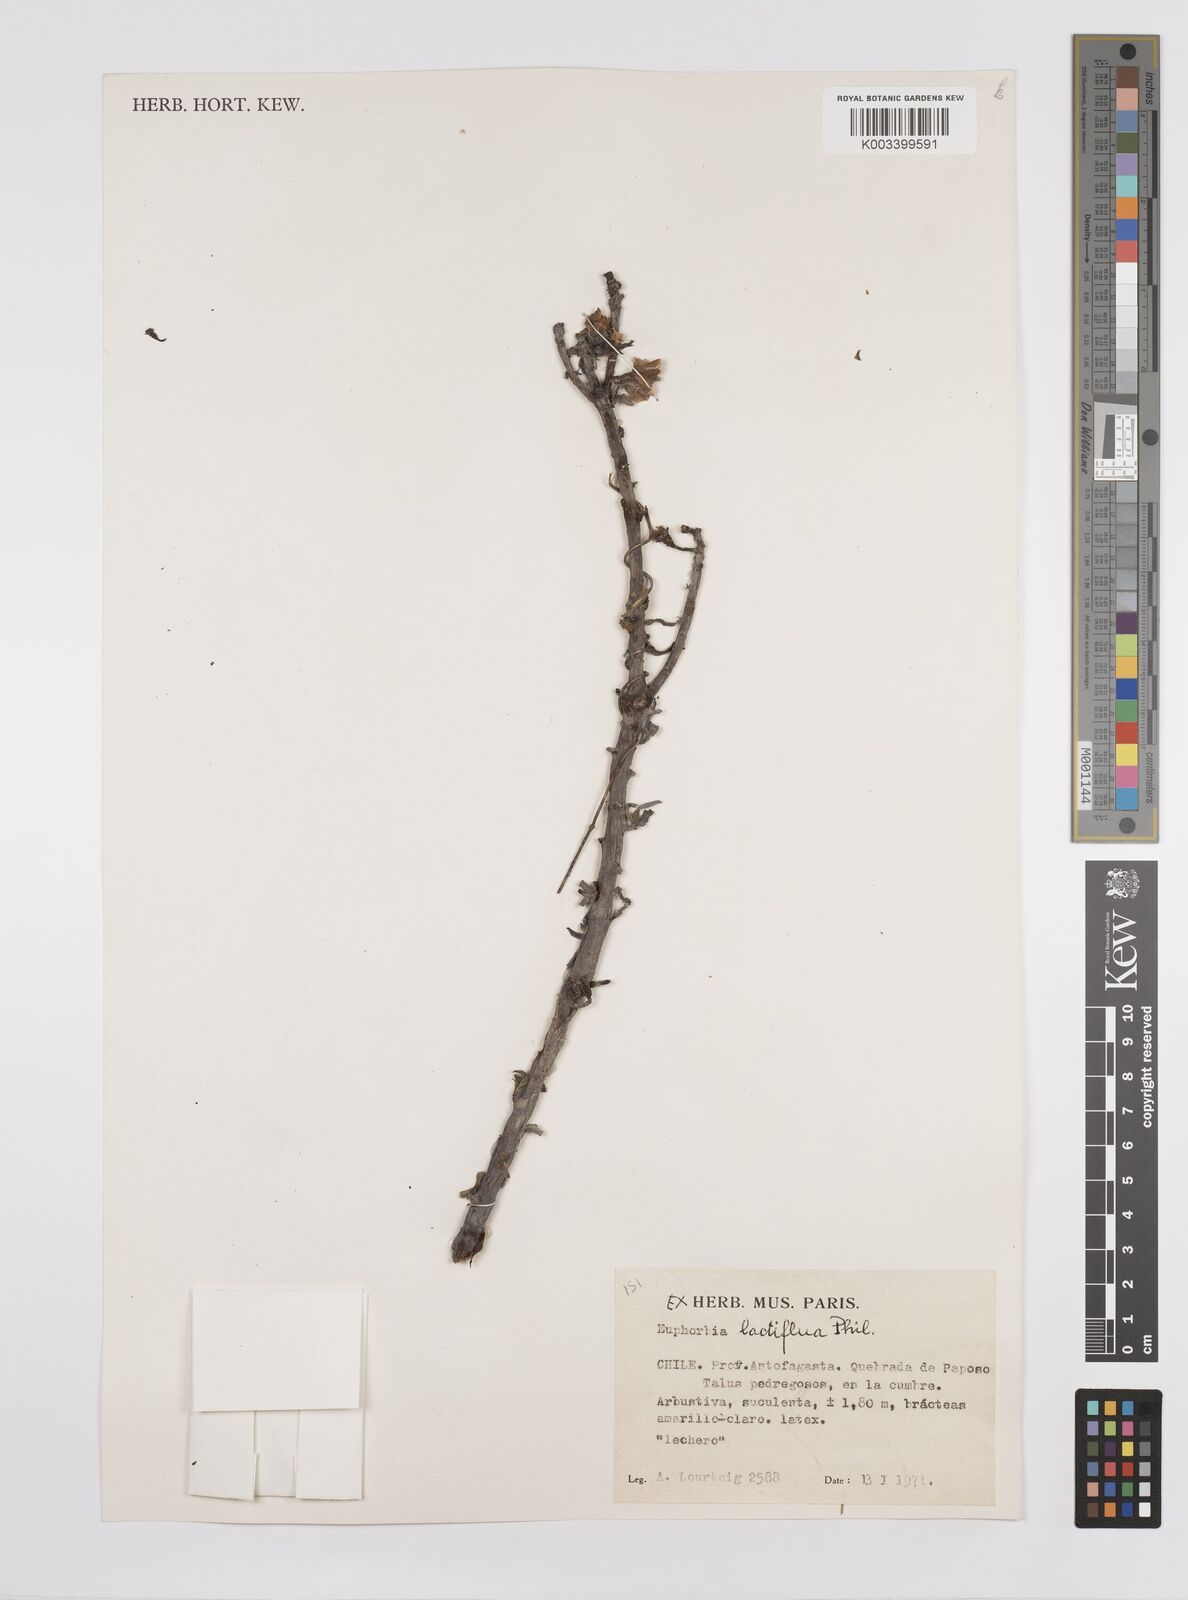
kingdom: Plantae
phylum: Tracheophyta
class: Magnoliopsida
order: Malpighiales
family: Euphorbiaceae
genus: Euphorbia
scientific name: Euphorbia lactiflua
